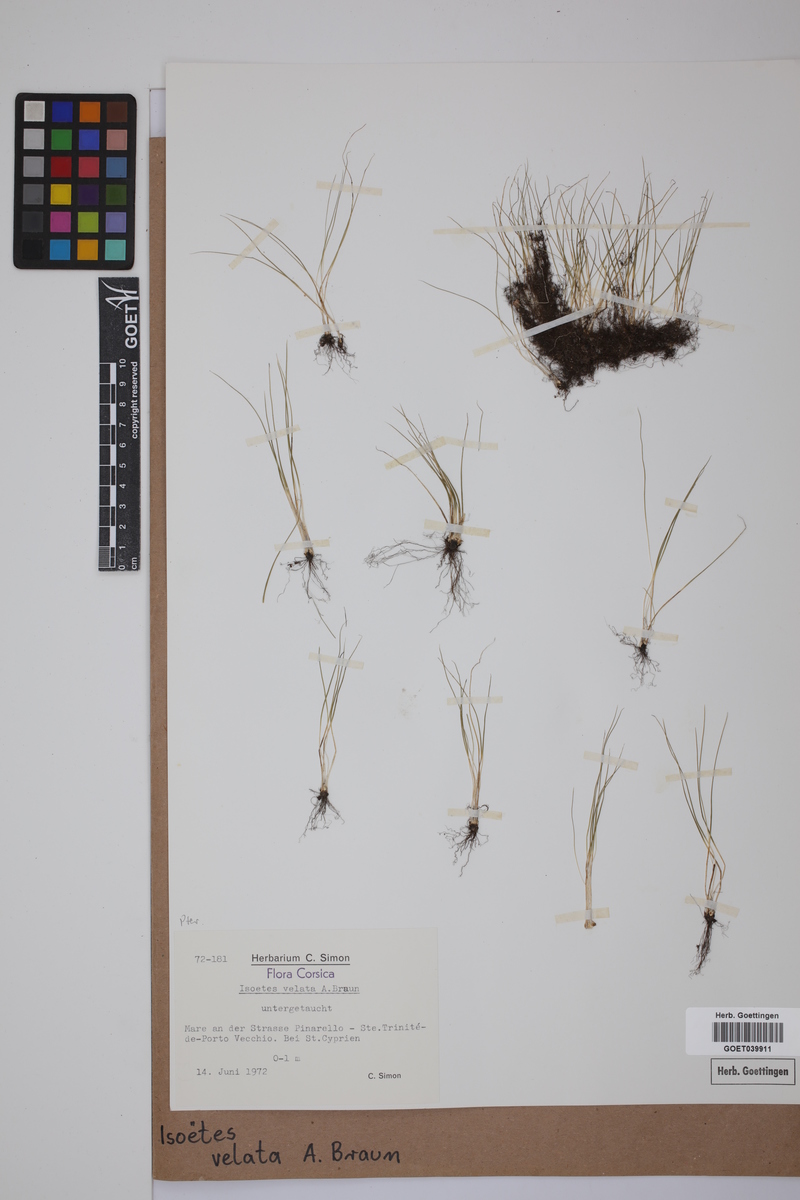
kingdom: Plantae
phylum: Tracheophyta
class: Lycopodiopsida
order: Isoetales
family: Isoetaceae
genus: Isoetes
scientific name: Isoetes longissima
